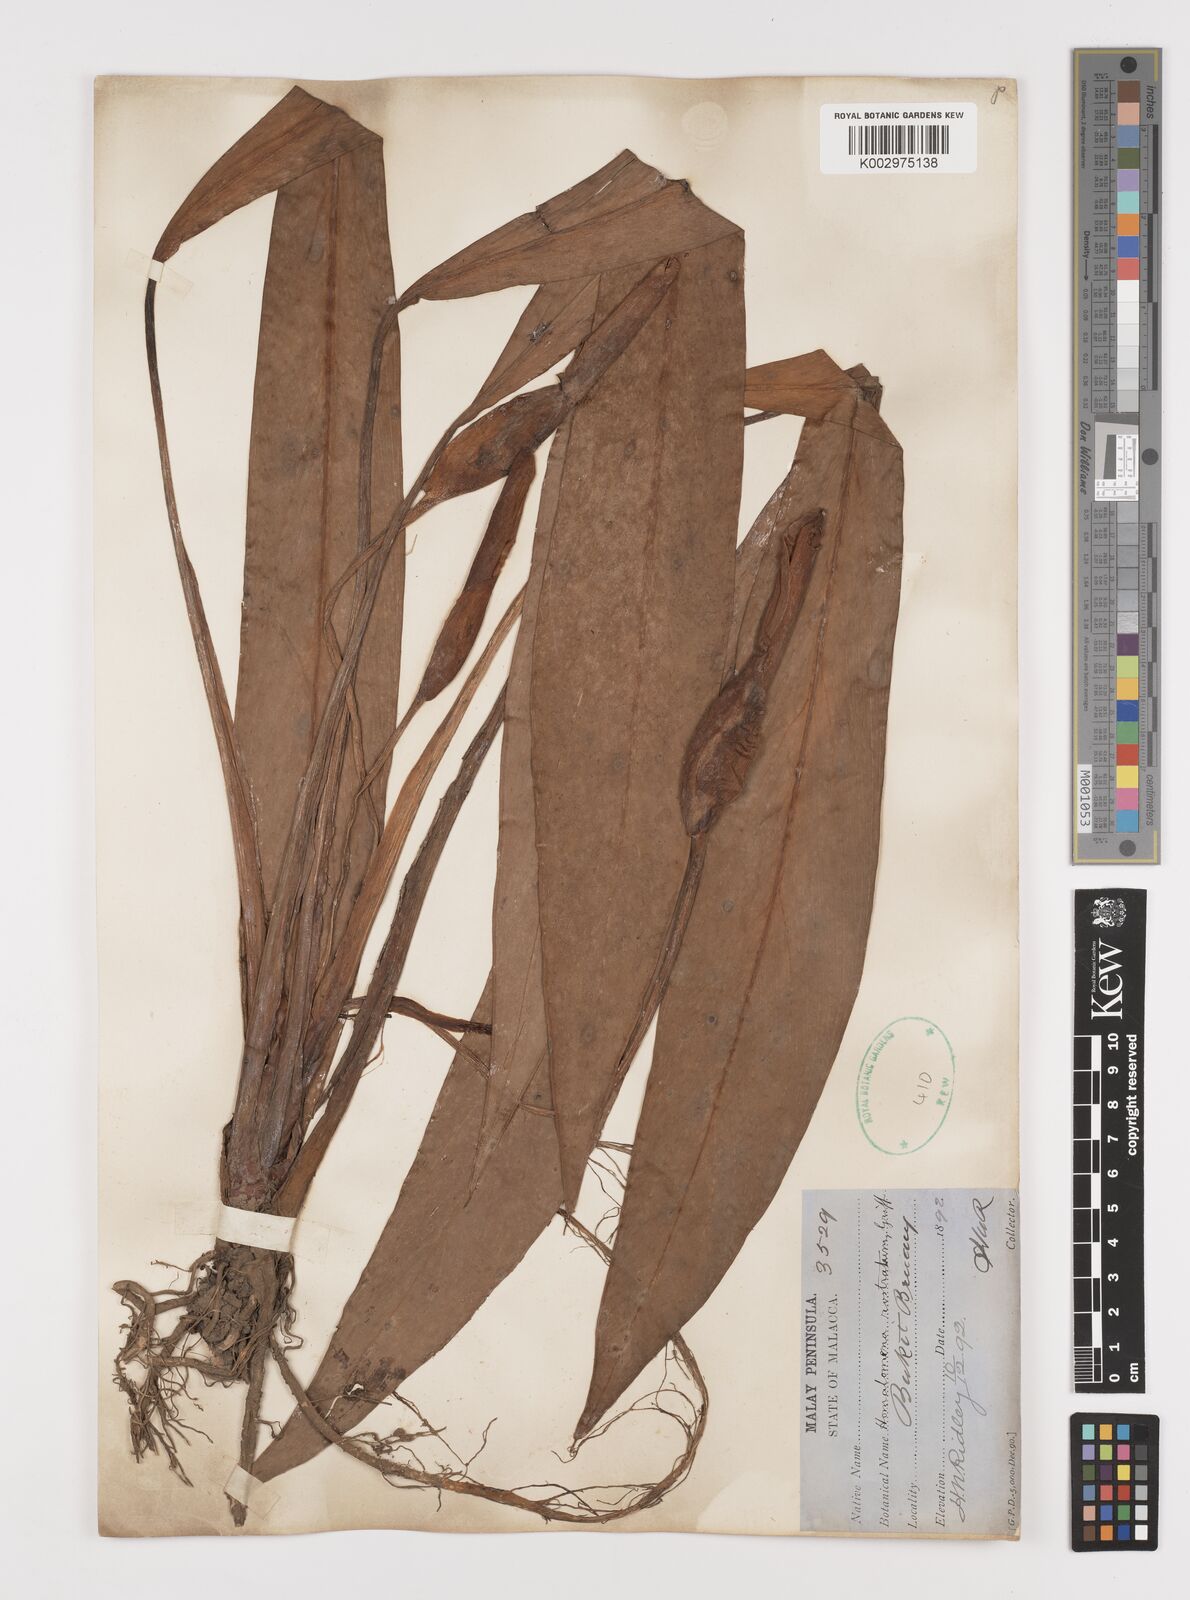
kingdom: Plantae
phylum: Tracheophyta
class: Liliopsida
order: Alismatales
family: Araceae
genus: Homalomena
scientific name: Homalomena rostrata
